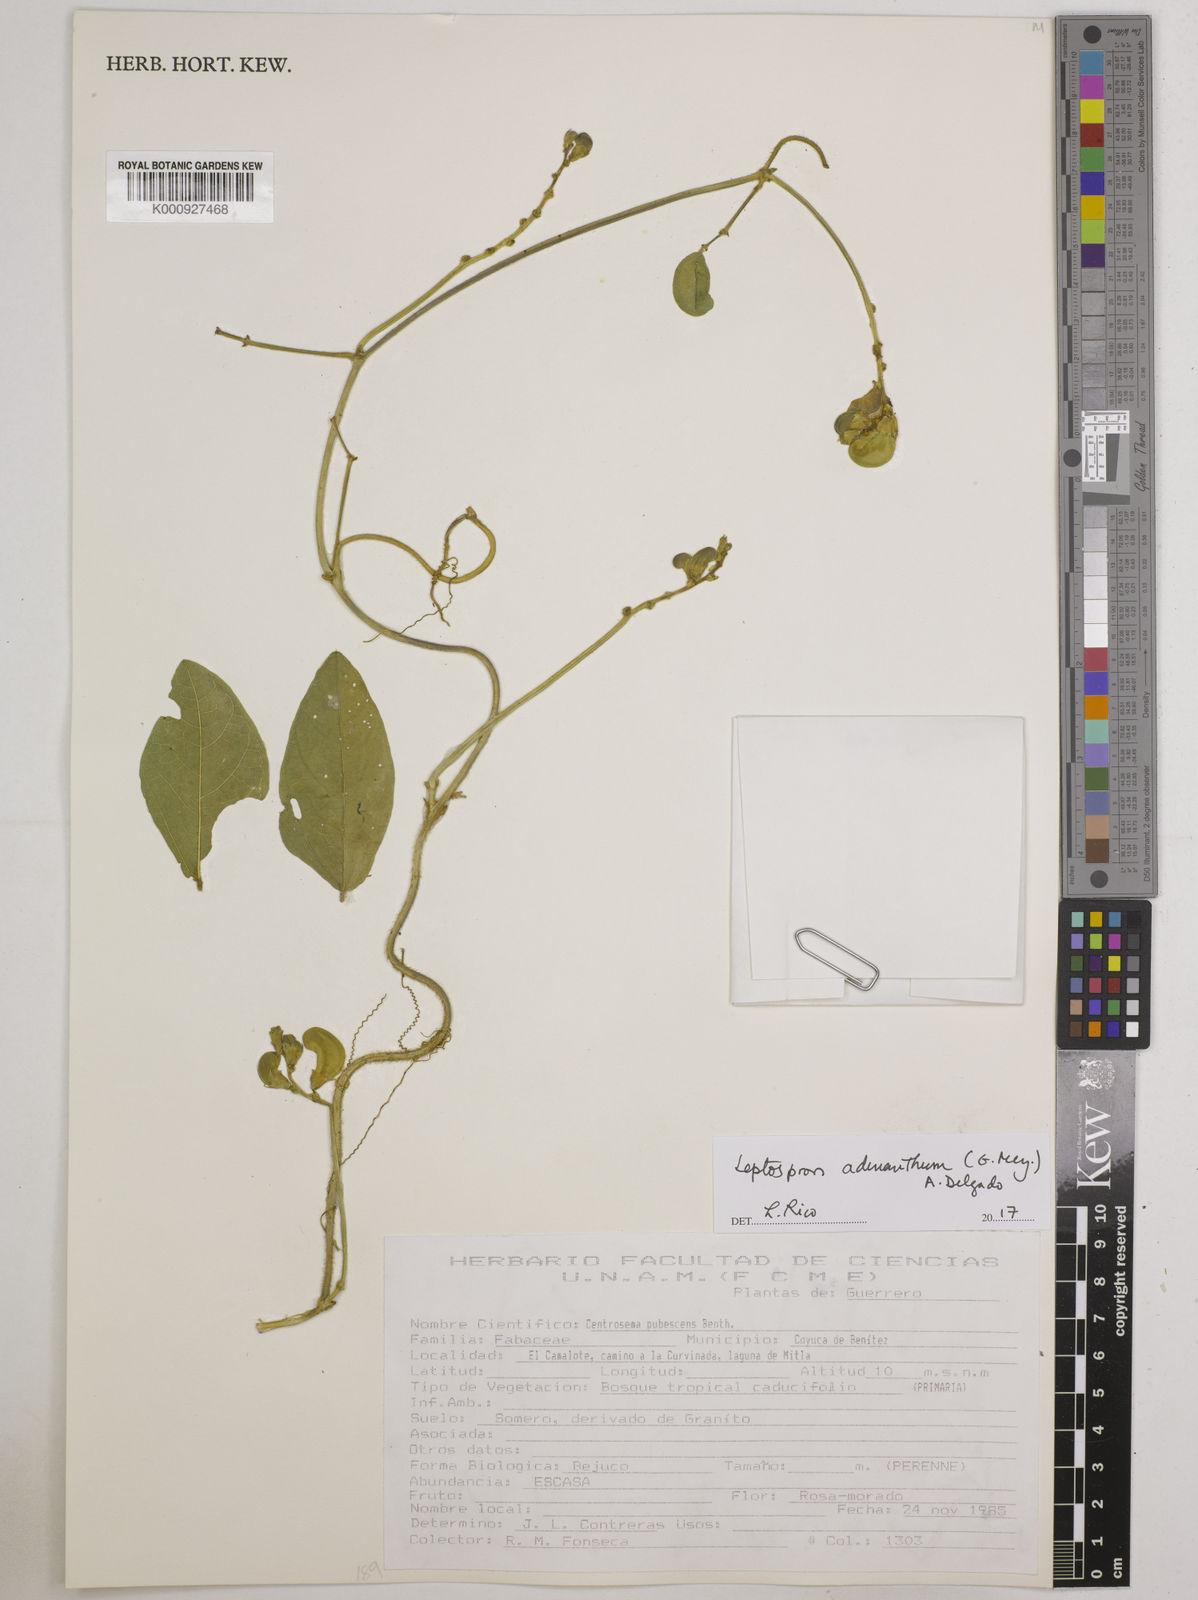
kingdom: Plantae
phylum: Tracheophyta
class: Magnoliopsida
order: Fabales
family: Fabaceae
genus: Leptospron
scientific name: Leptospron adenanthum
